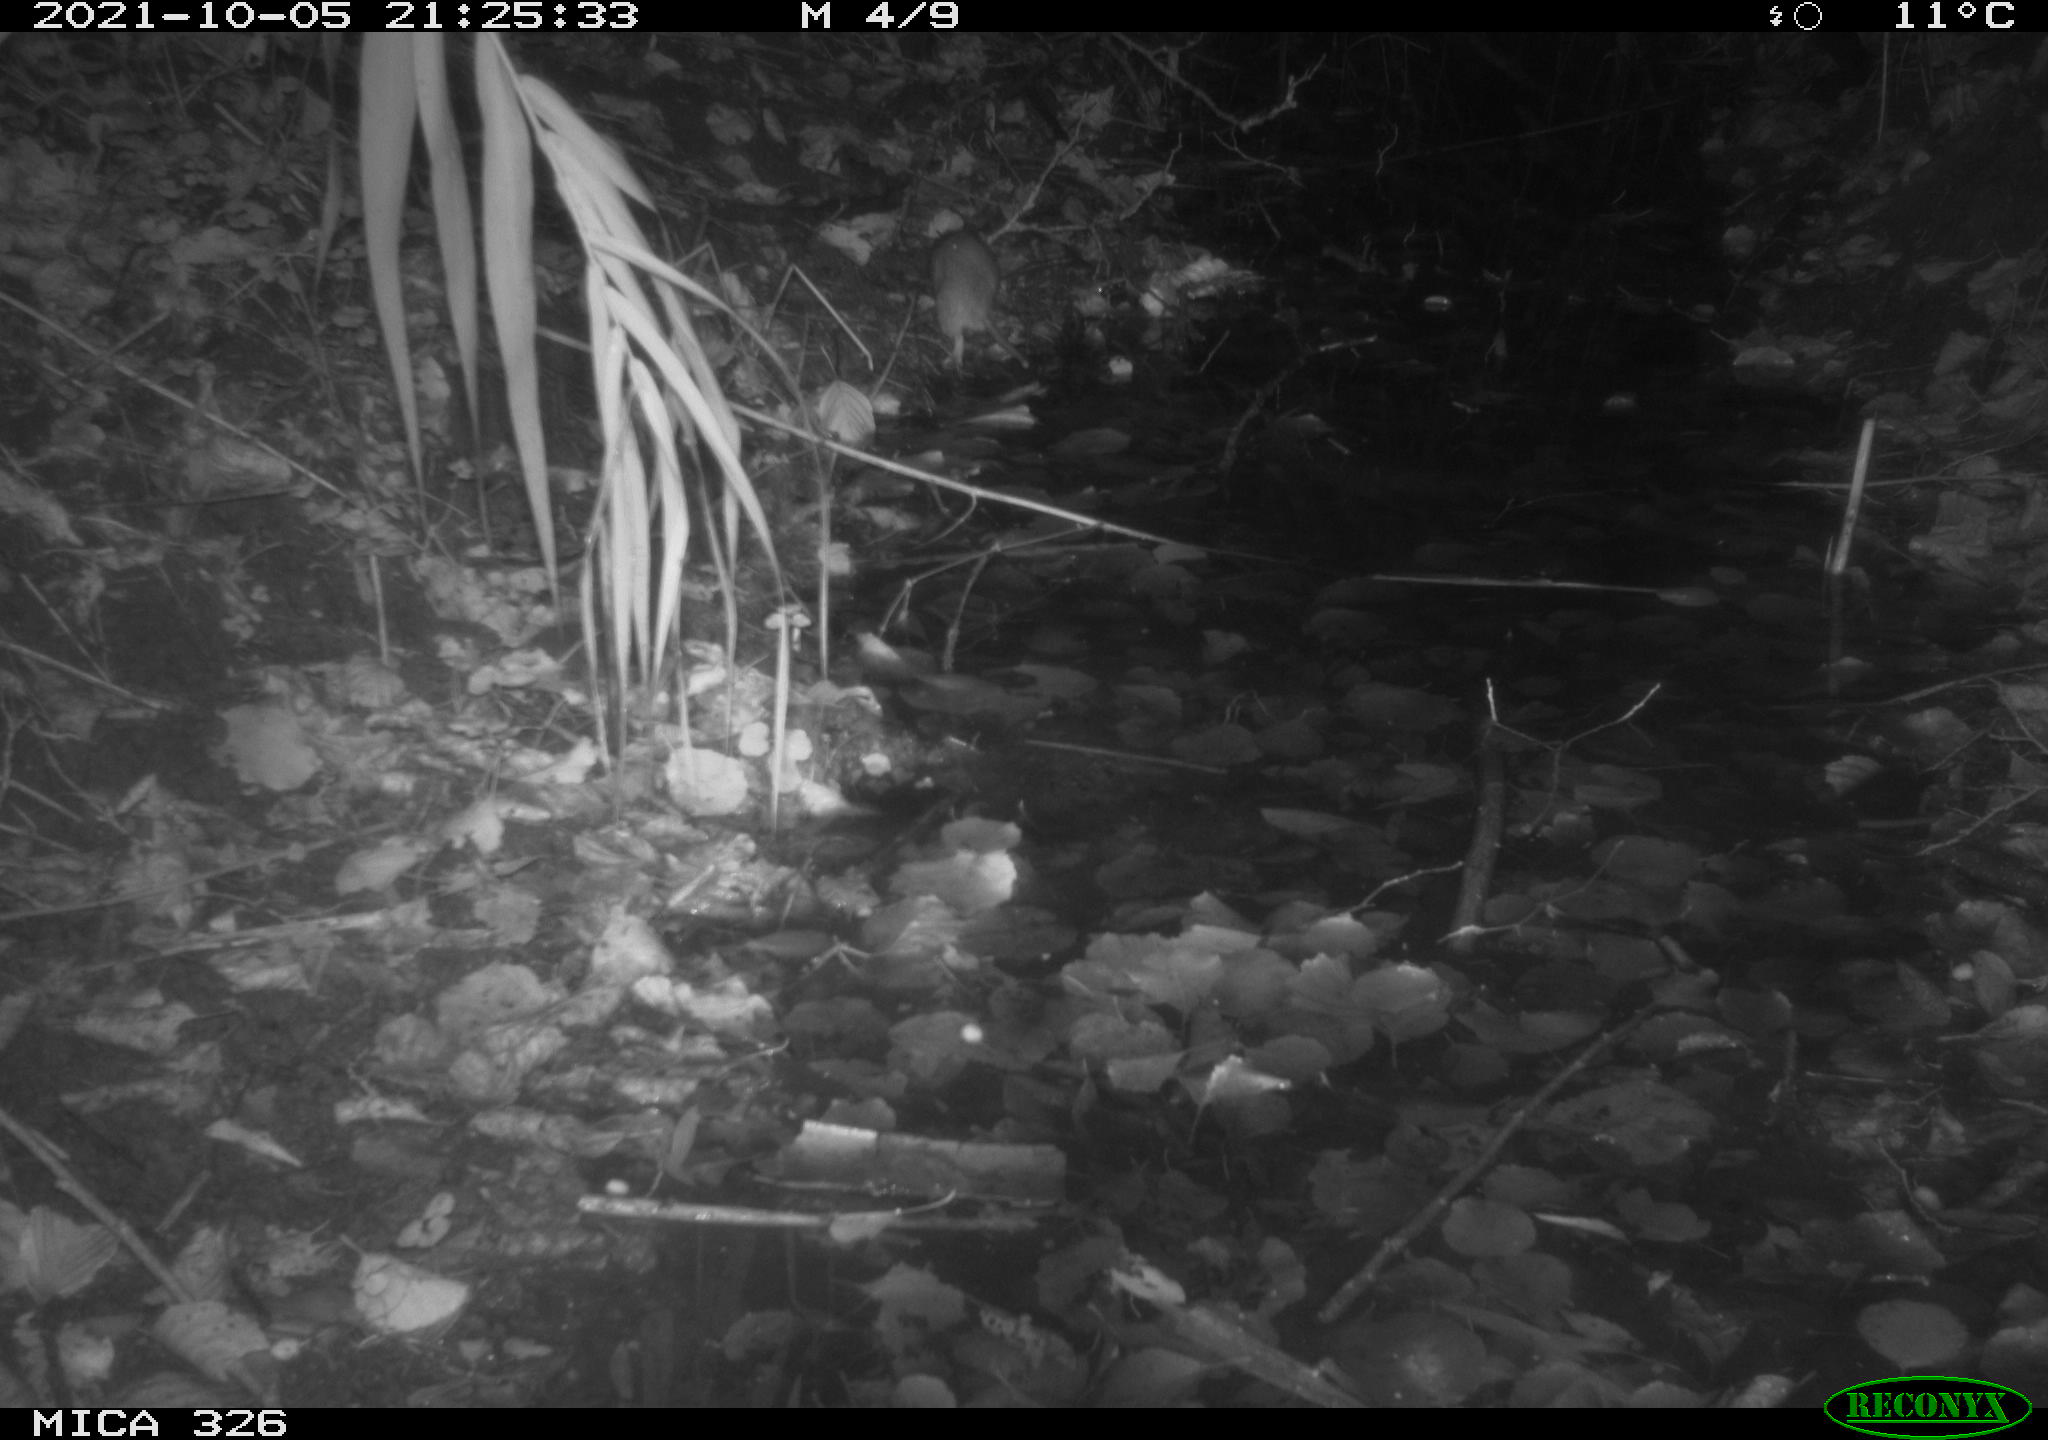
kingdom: Animalia
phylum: Chordata
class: Mammalia
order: Rodentia
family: Muridae
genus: Rattus
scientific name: Rattus norvegicus
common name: Brown rat
